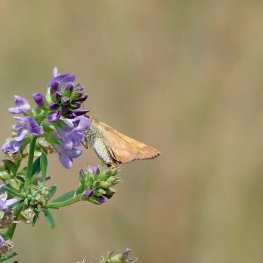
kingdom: Animalia
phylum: Arthropoda
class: Insecta
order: Lepidoptera
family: Hesperiidae
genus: Ochlodes
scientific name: Ochlodes sylvanoides
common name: Woodland Skipper
